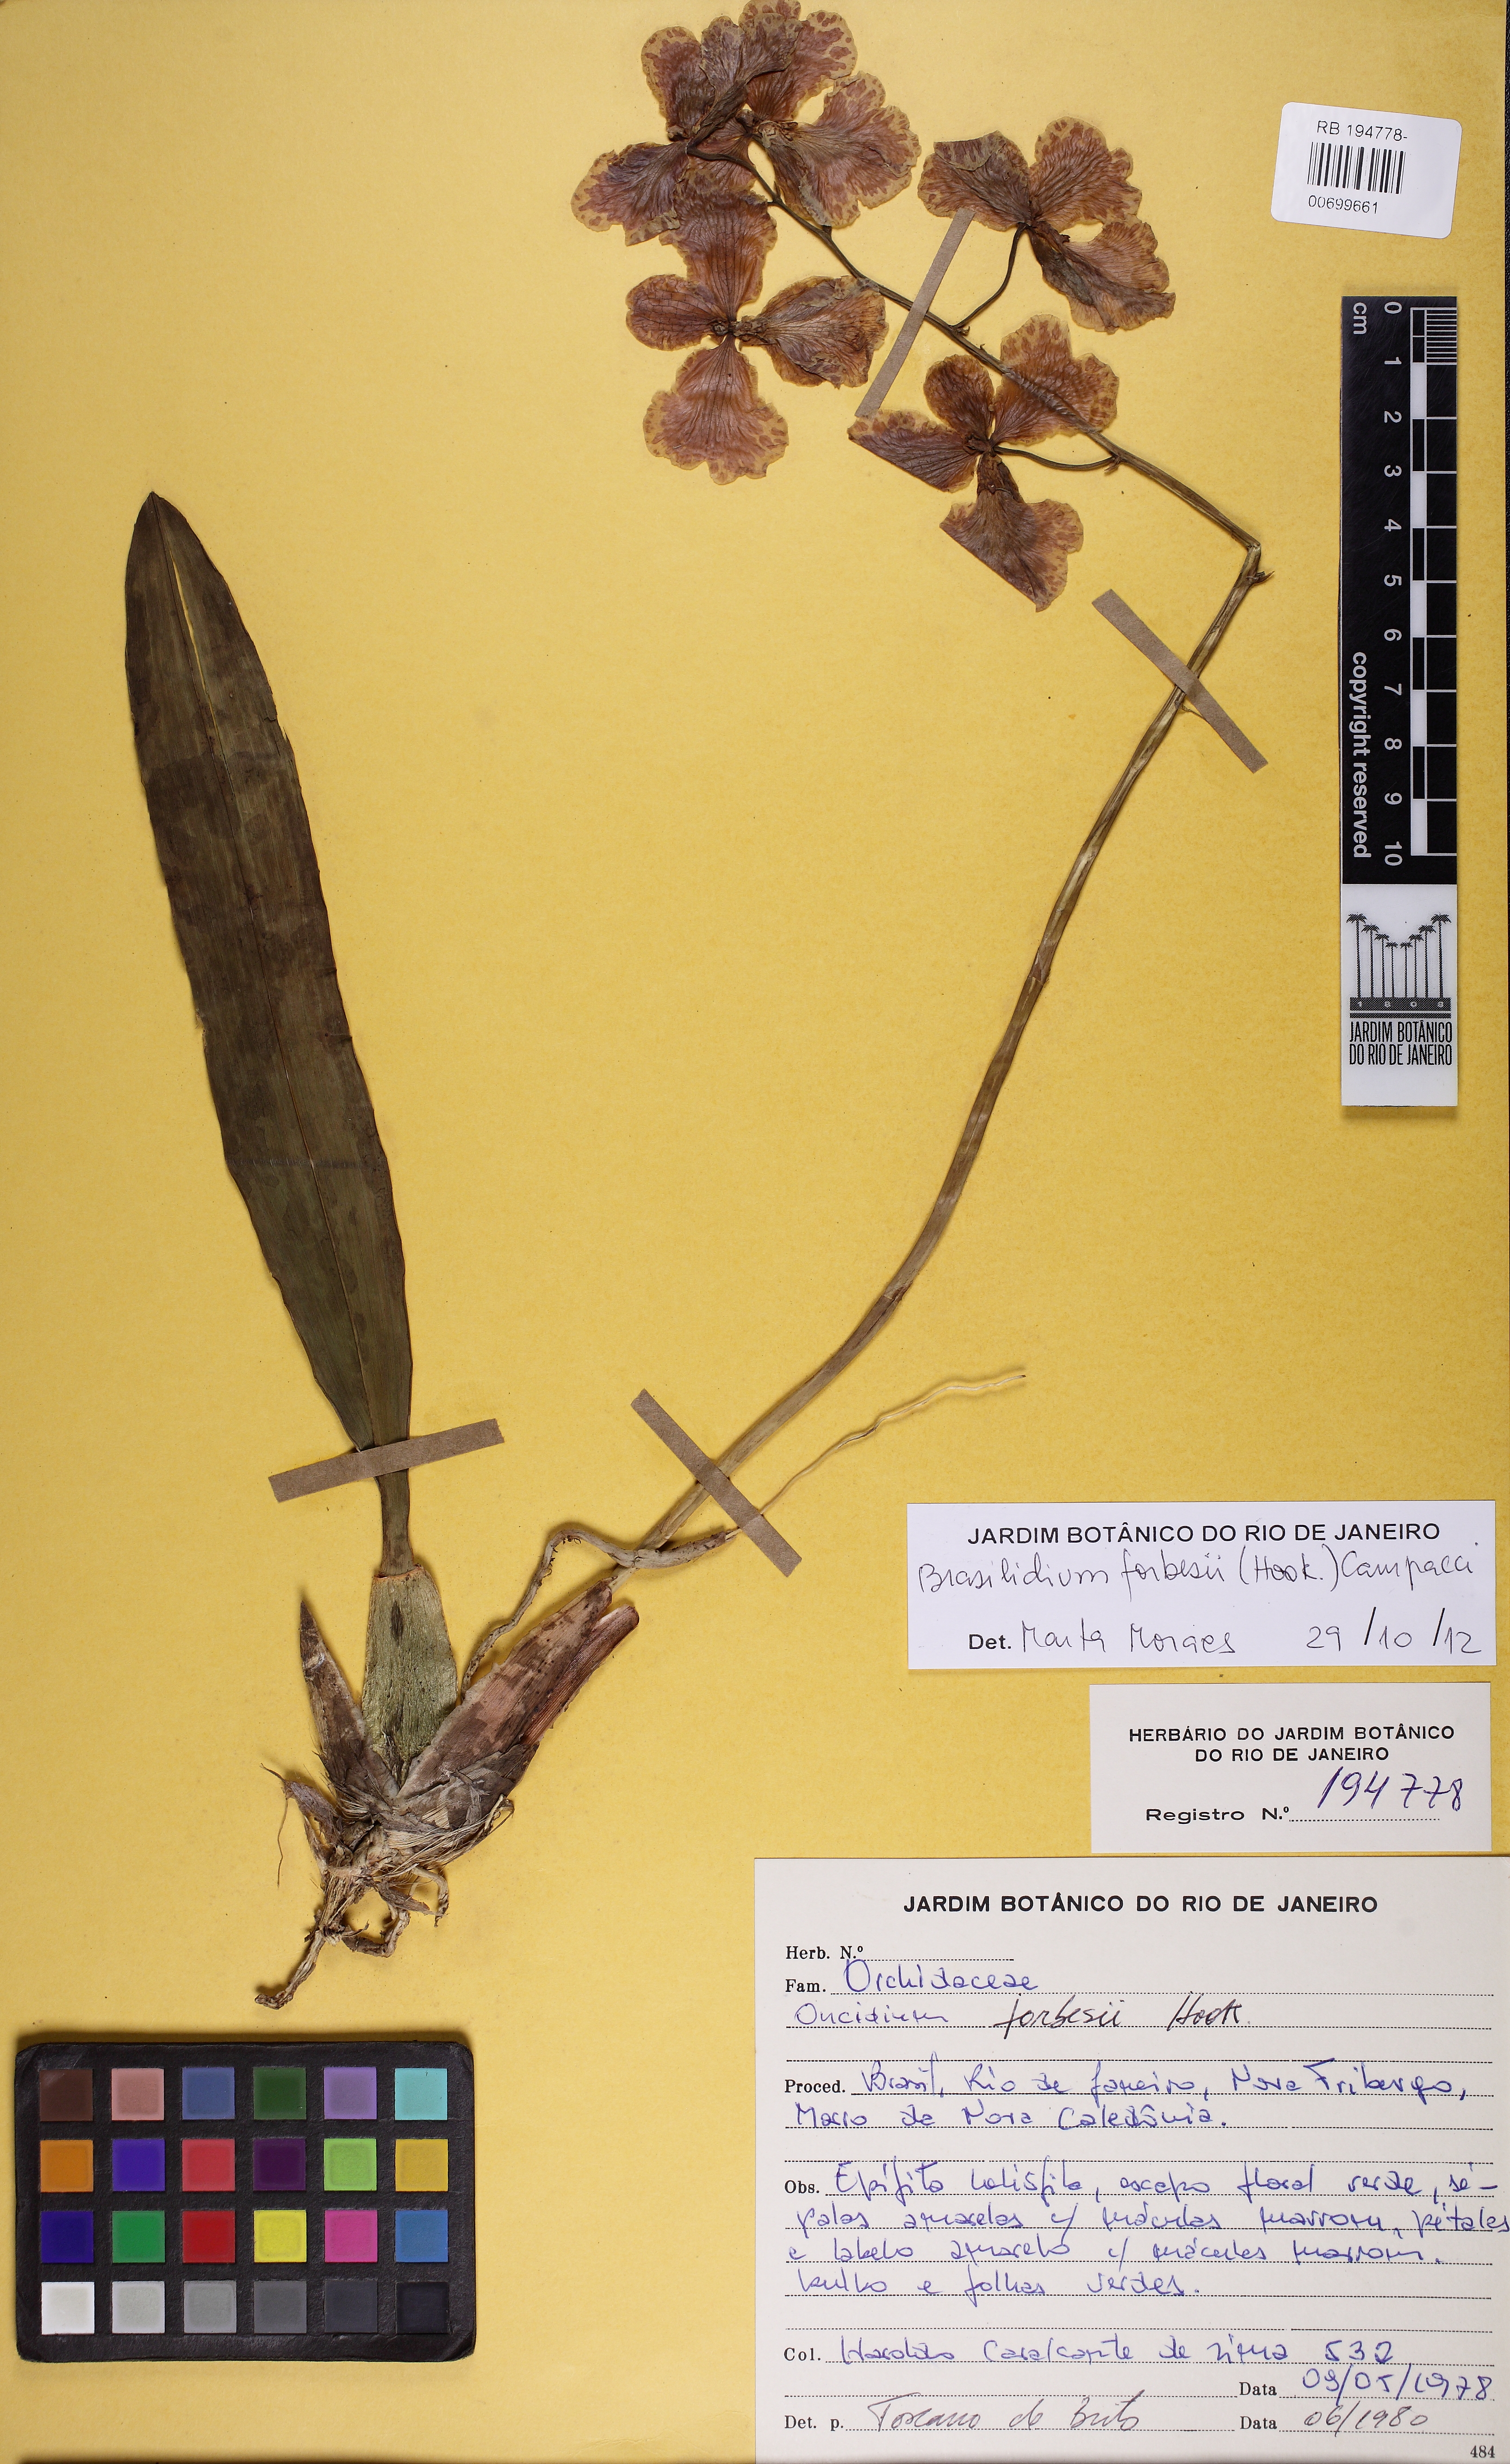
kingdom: Plantae
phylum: Tracheophyta
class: Liliopsida
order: Asparagales
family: Orchidaceae
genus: Gomesa
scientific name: Gomesa forbesii
